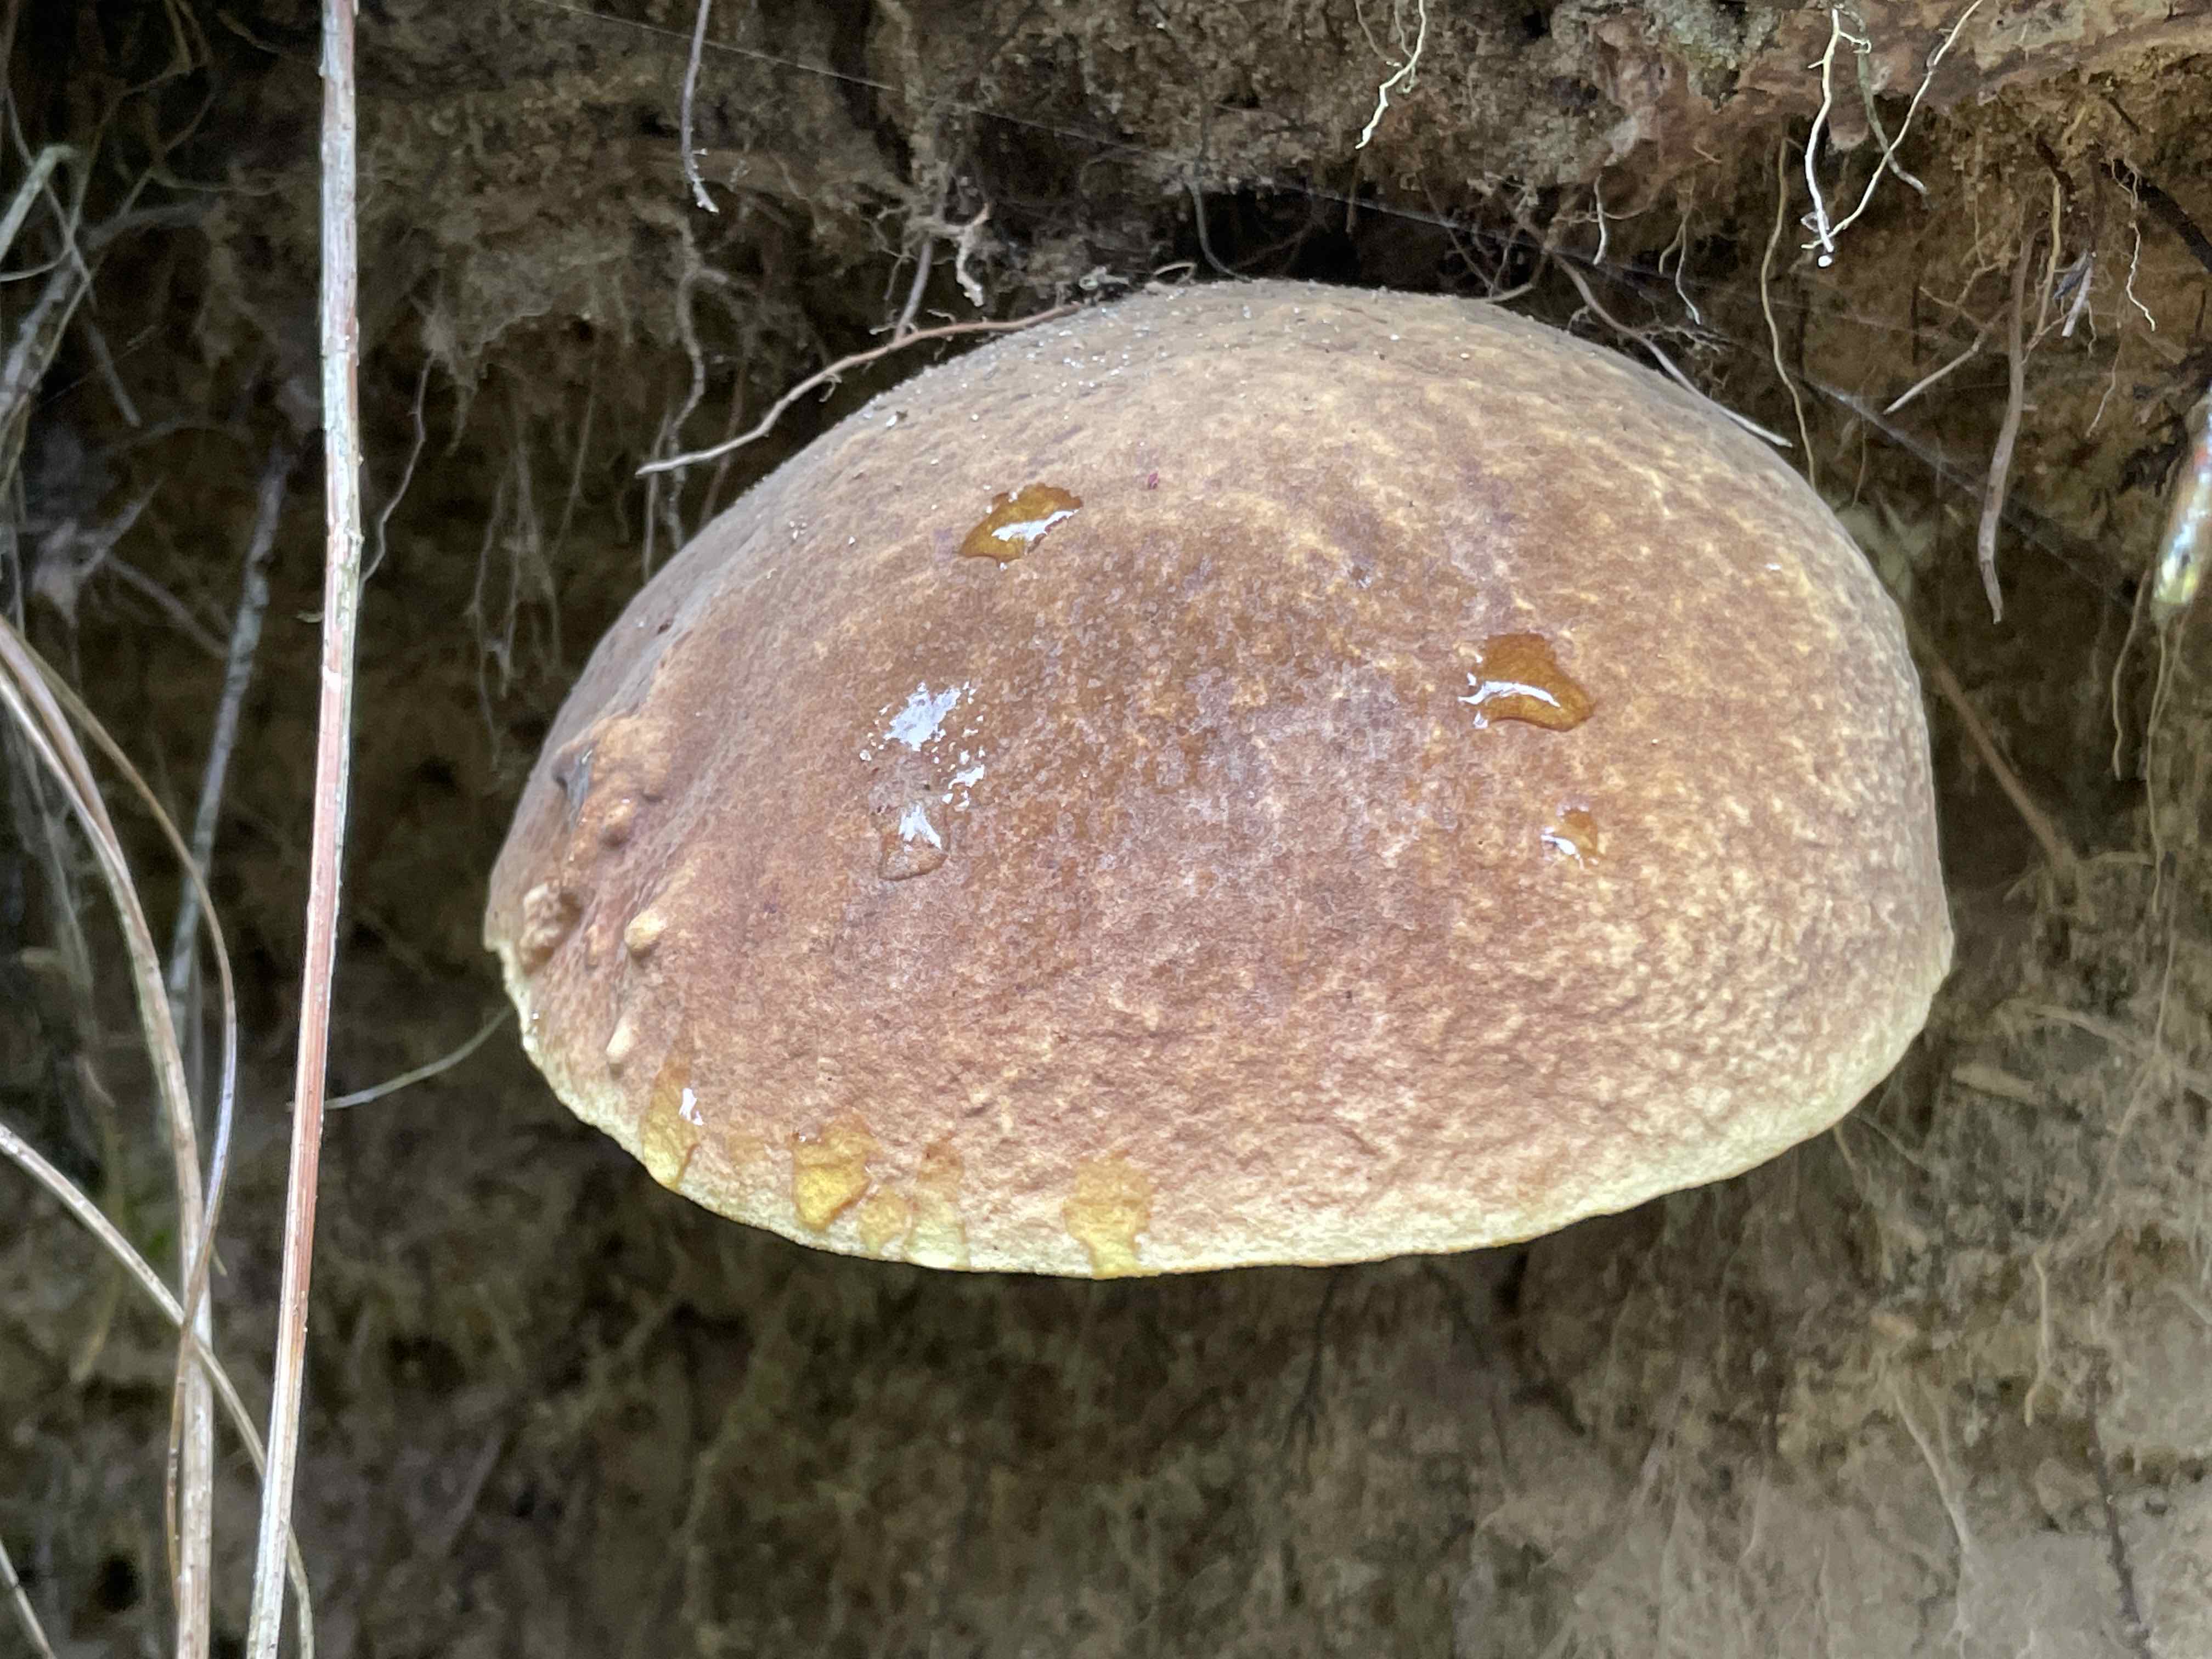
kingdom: Fungi
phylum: Basidiomycota
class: Agaricomycetes
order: Boletales
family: Boletaceae
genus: Neoboletus
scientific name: Neoboletus erythropus
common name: punktstokket indigorørhat
